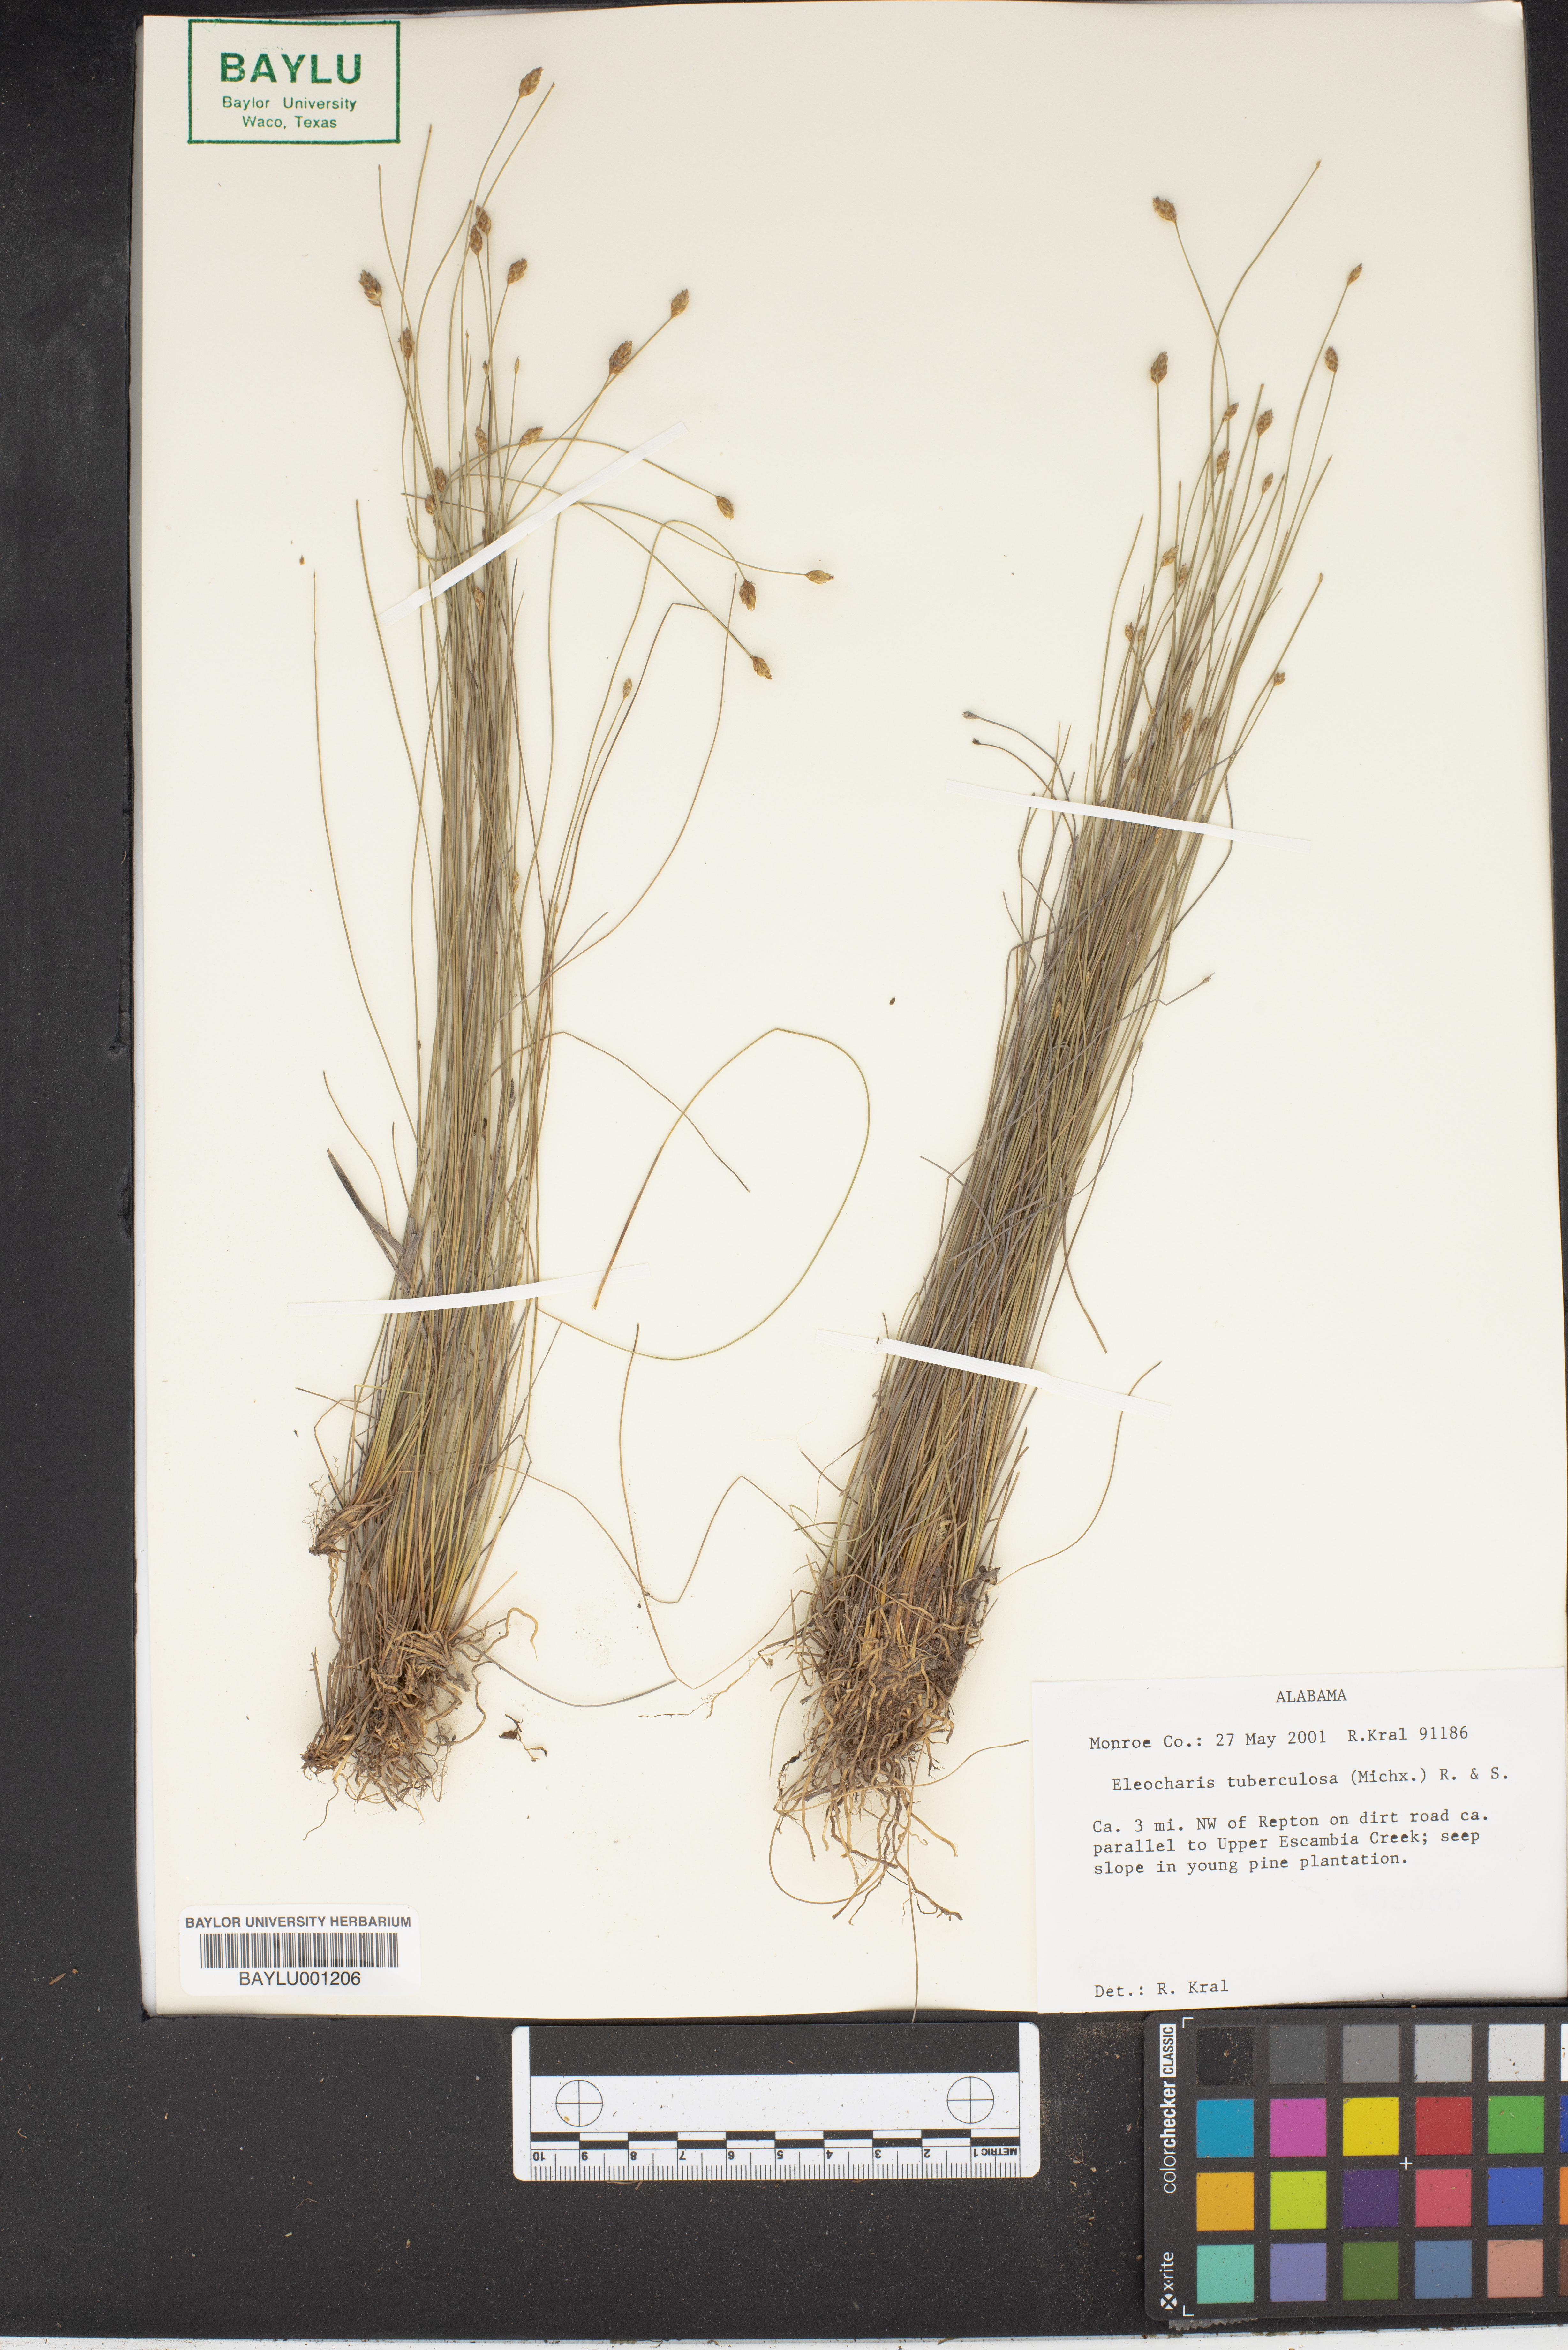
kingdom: Plantae
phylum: Tracheophyta
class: Liliopsida
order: Poales
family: Cyperaceae
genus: Eleocharis
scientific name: Eleocharis tuberculosa
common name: Cone-cup spikerush
